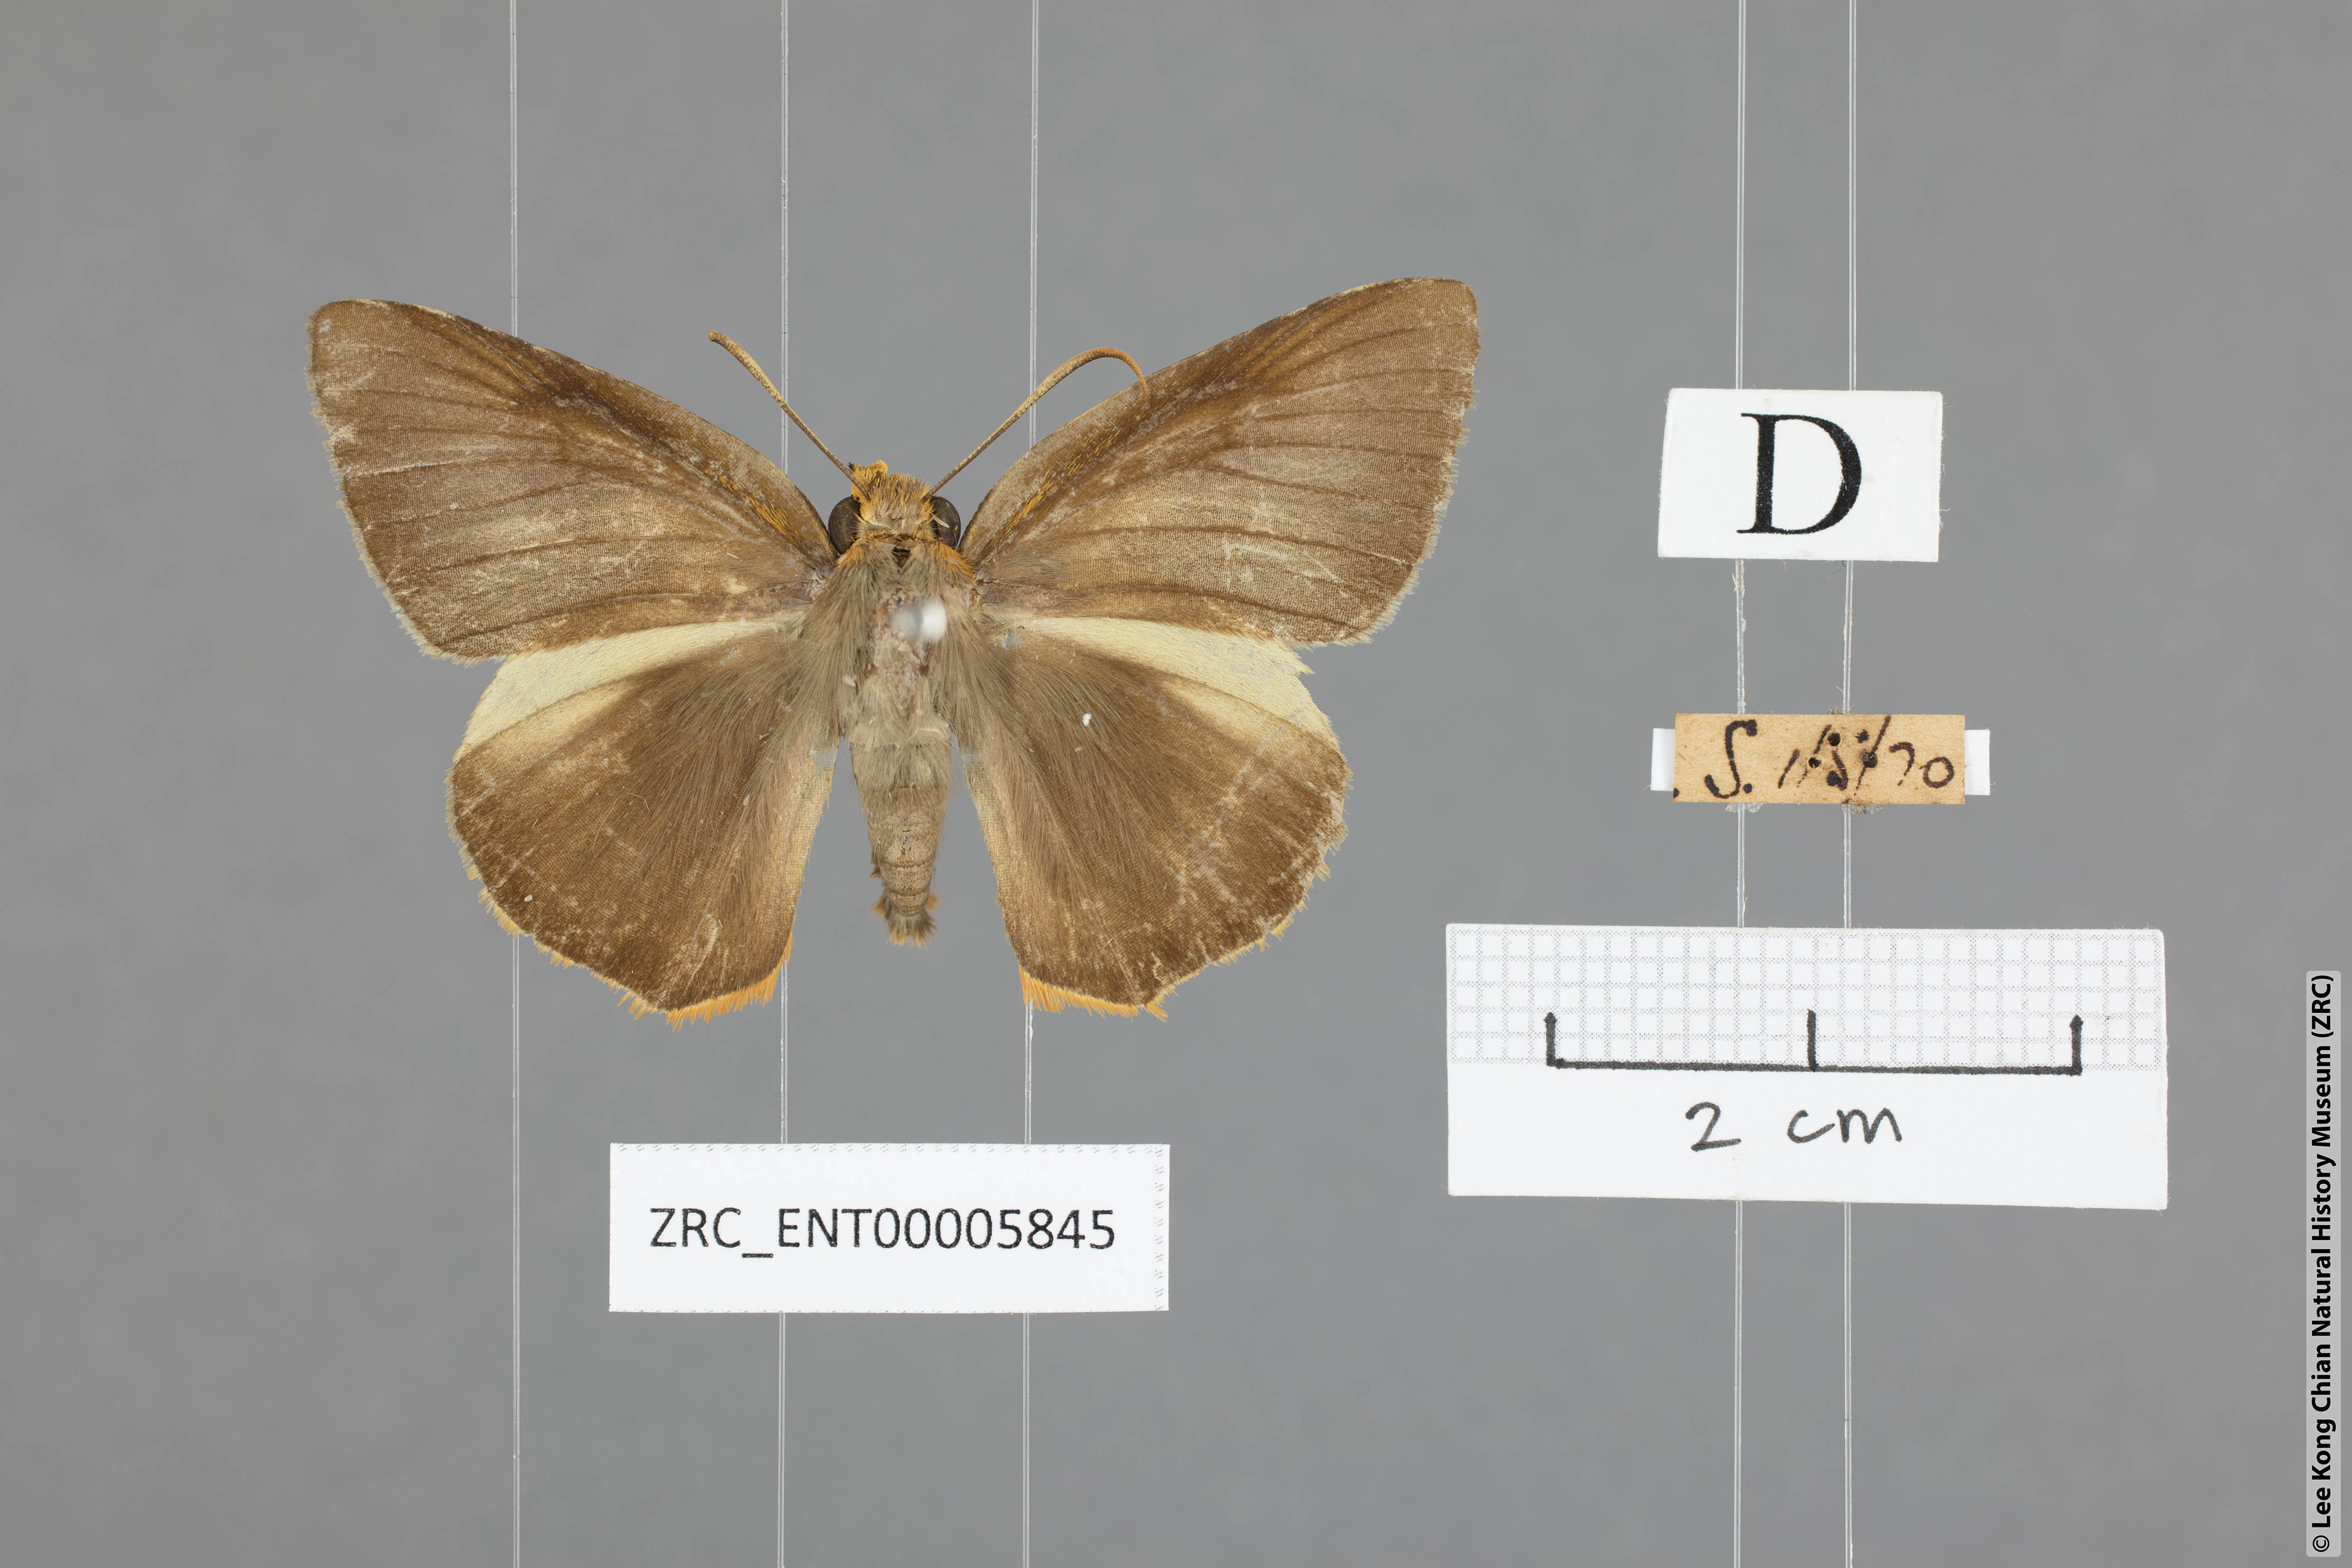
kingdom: Animalia
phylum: Arthropoda
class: Insecta
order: Lepidoptera
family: Hesperiidae
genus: Bibasis
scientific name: Bibasis Burara harisa
